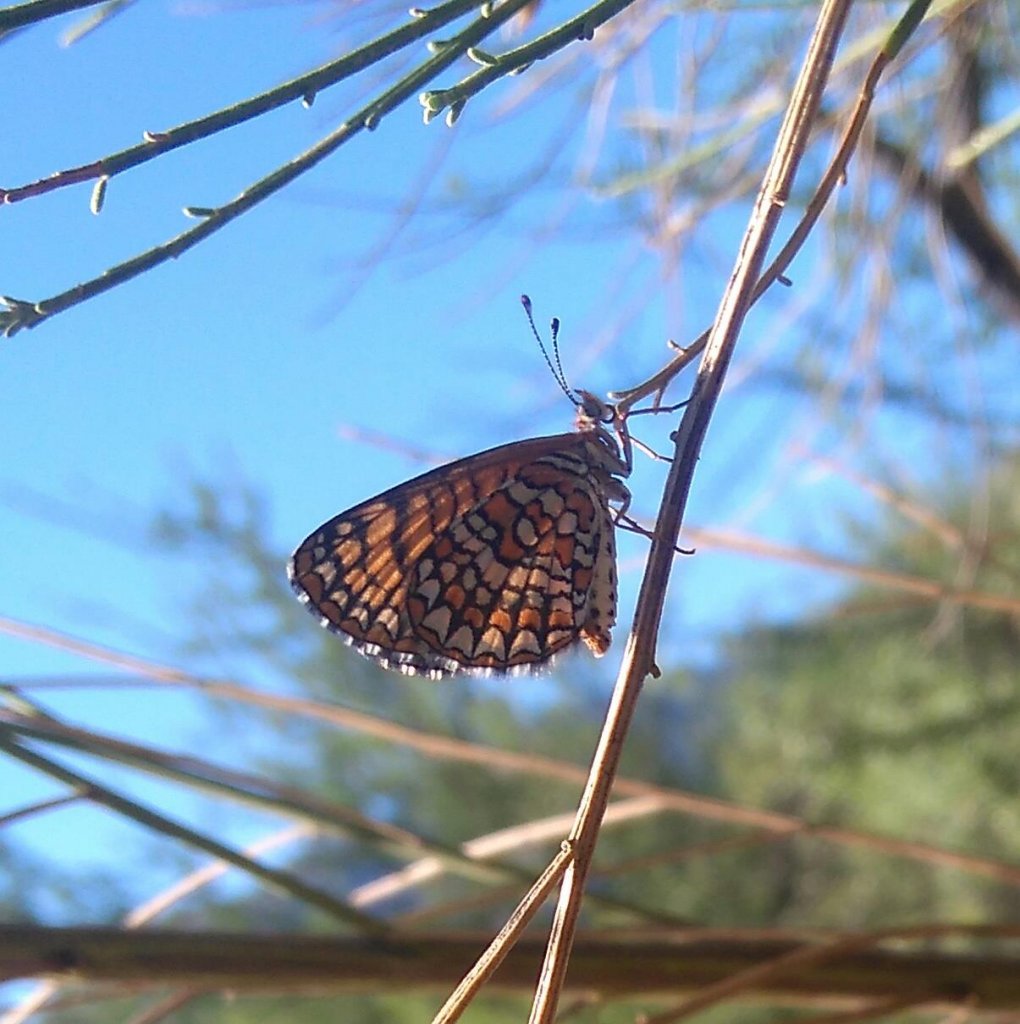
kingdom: Animalia
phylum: Arthropoda
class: Insecta
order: Lepidoptera
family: Nymphalidae
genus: Texola
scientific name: Texola elada
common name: Elada Checkerspot
